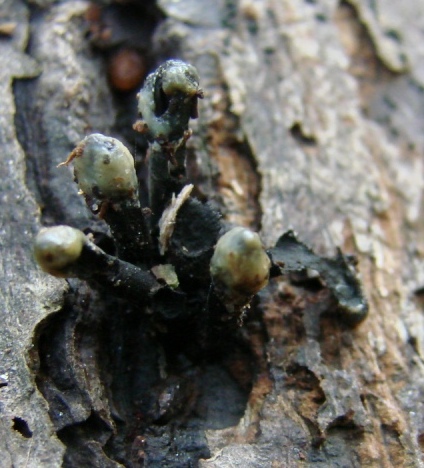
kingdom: Fungi
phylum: Ascomycota
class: Leotiomycetes
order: Helotiales
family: Bulgariaceae
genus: Holwaya
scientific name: Holwaya mucida
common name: lindeskive
